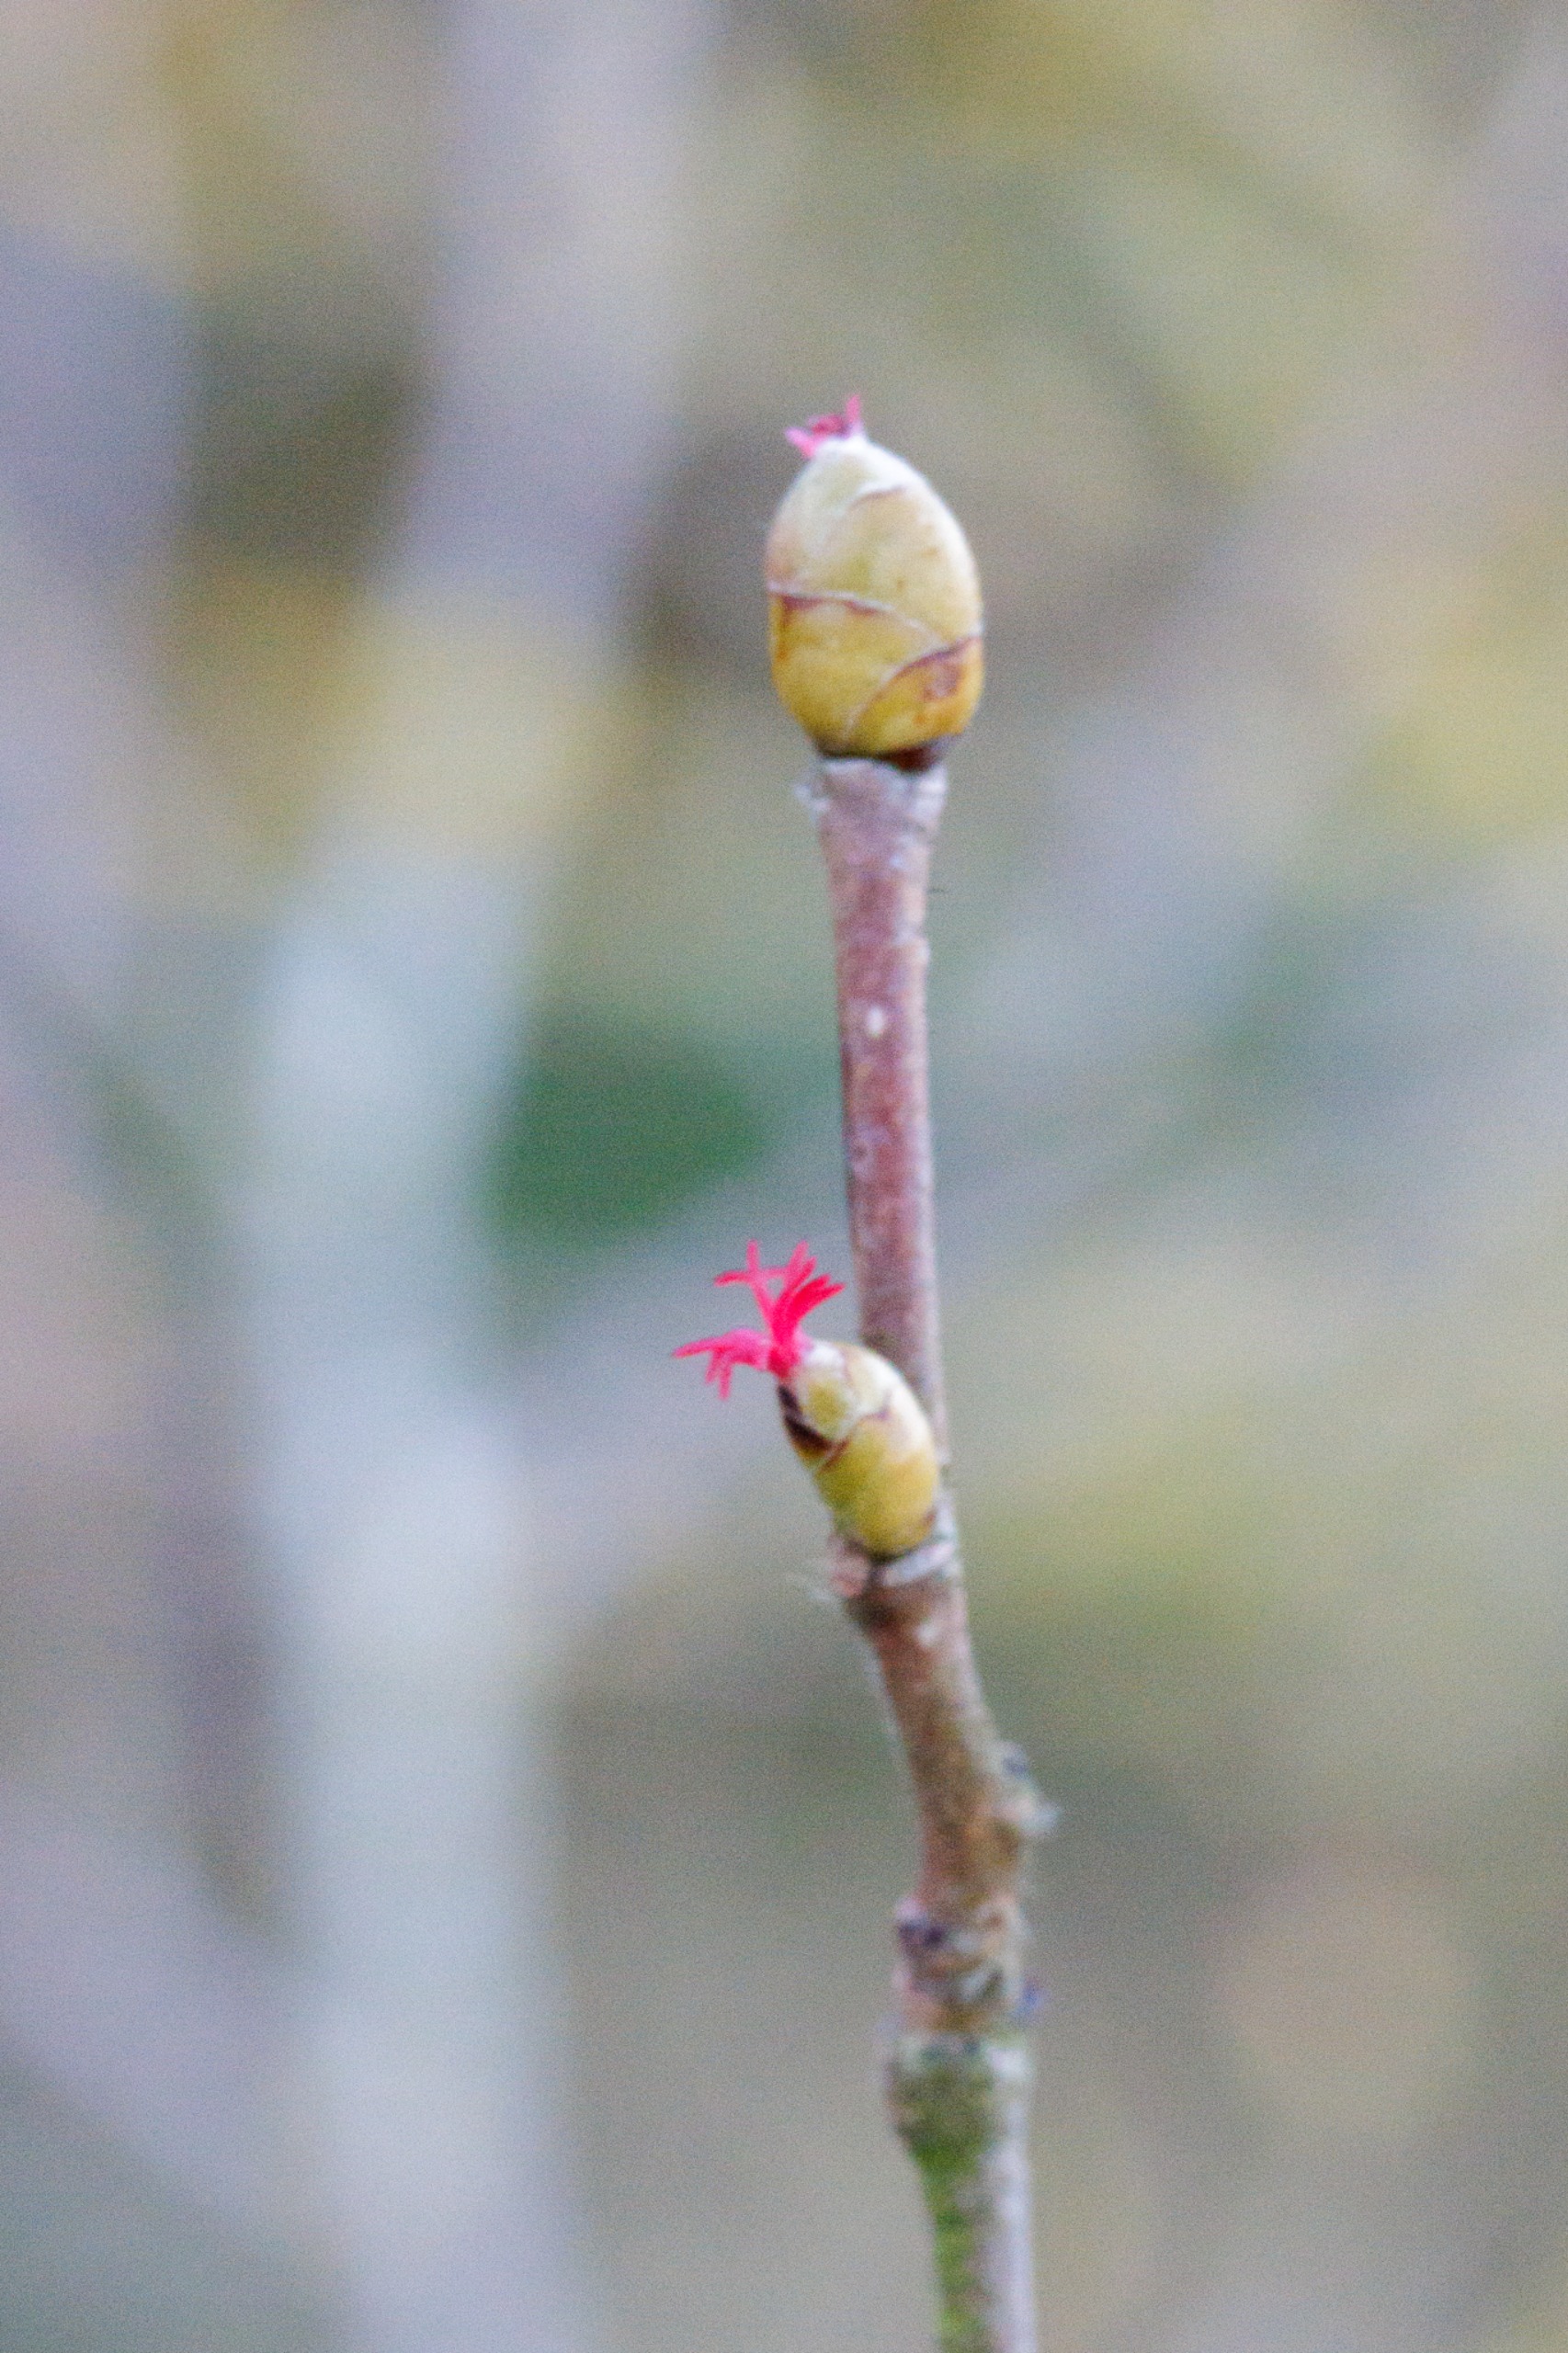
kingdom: Plantae
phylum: Tracheophyta
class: Magnoliopsida
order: Fagales
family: Betulaceae
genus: Corylus
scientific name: Corylus avellana
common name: Hassel
